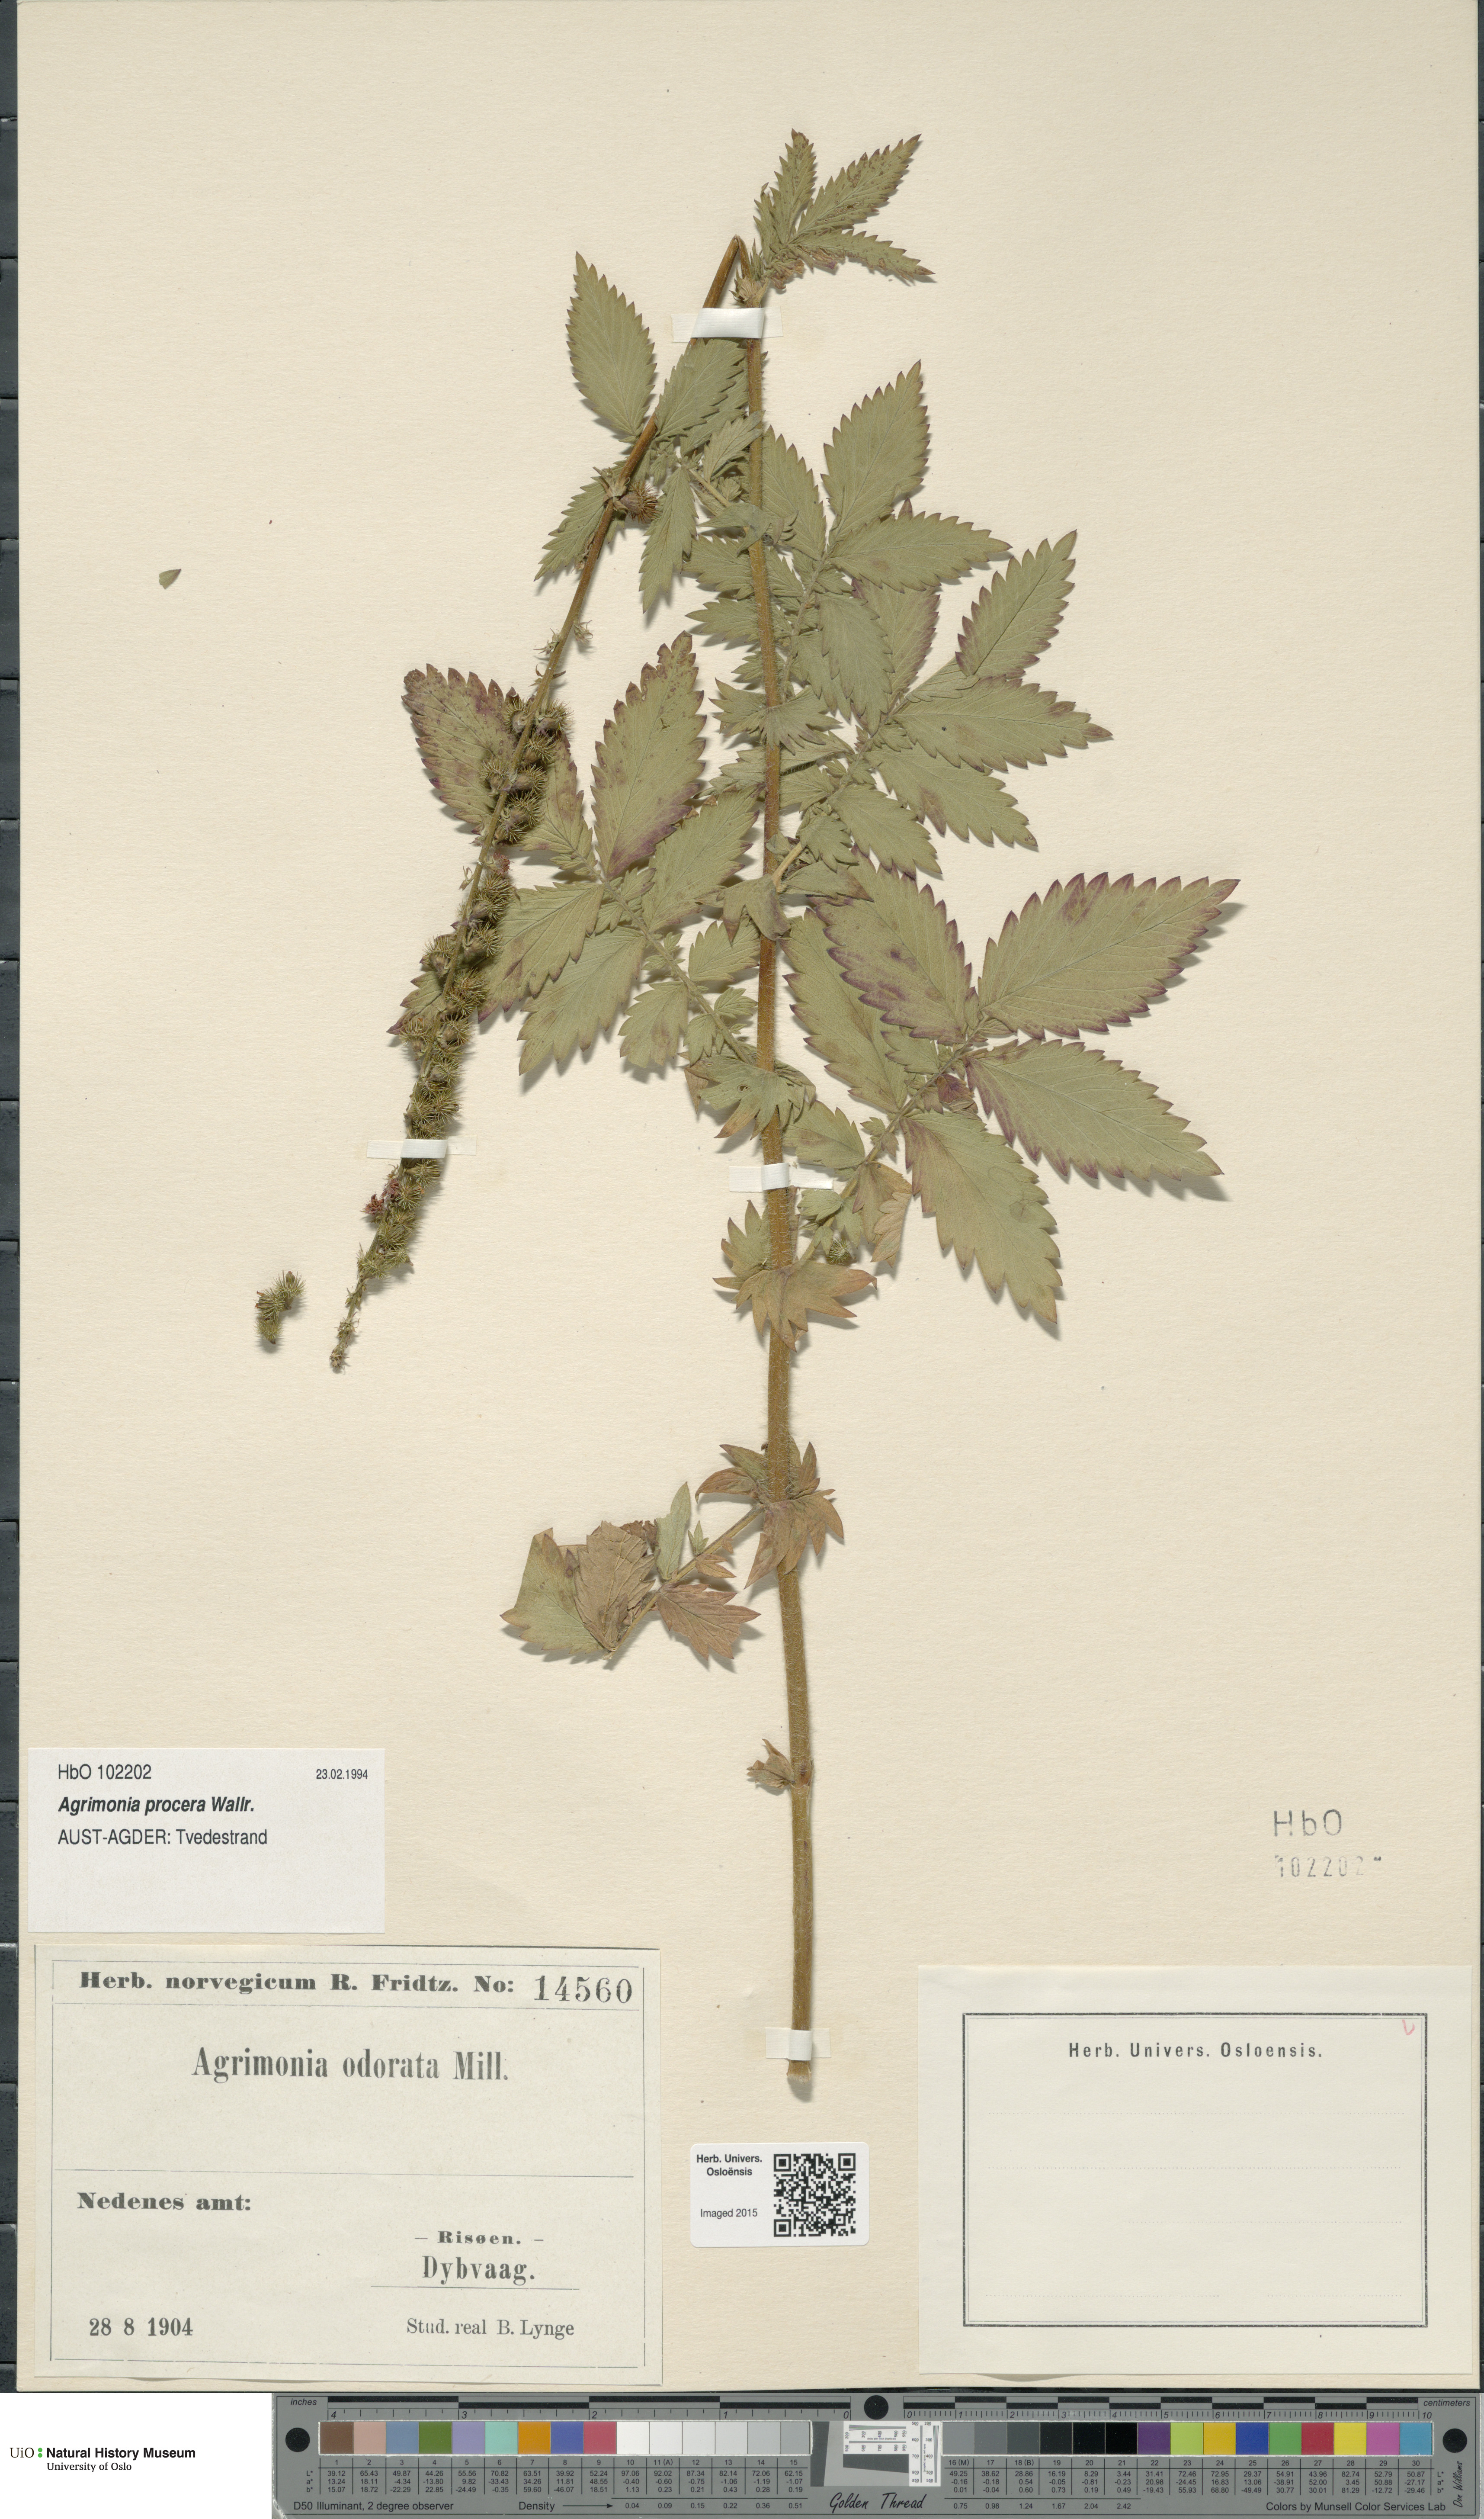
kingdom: Plantae
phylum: Tracheophyta
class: Magnoliopsida
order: Rosales
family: Rosaceae
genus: Agrimonia
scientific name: Agrimonia procera
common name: Fragrant agrimony
